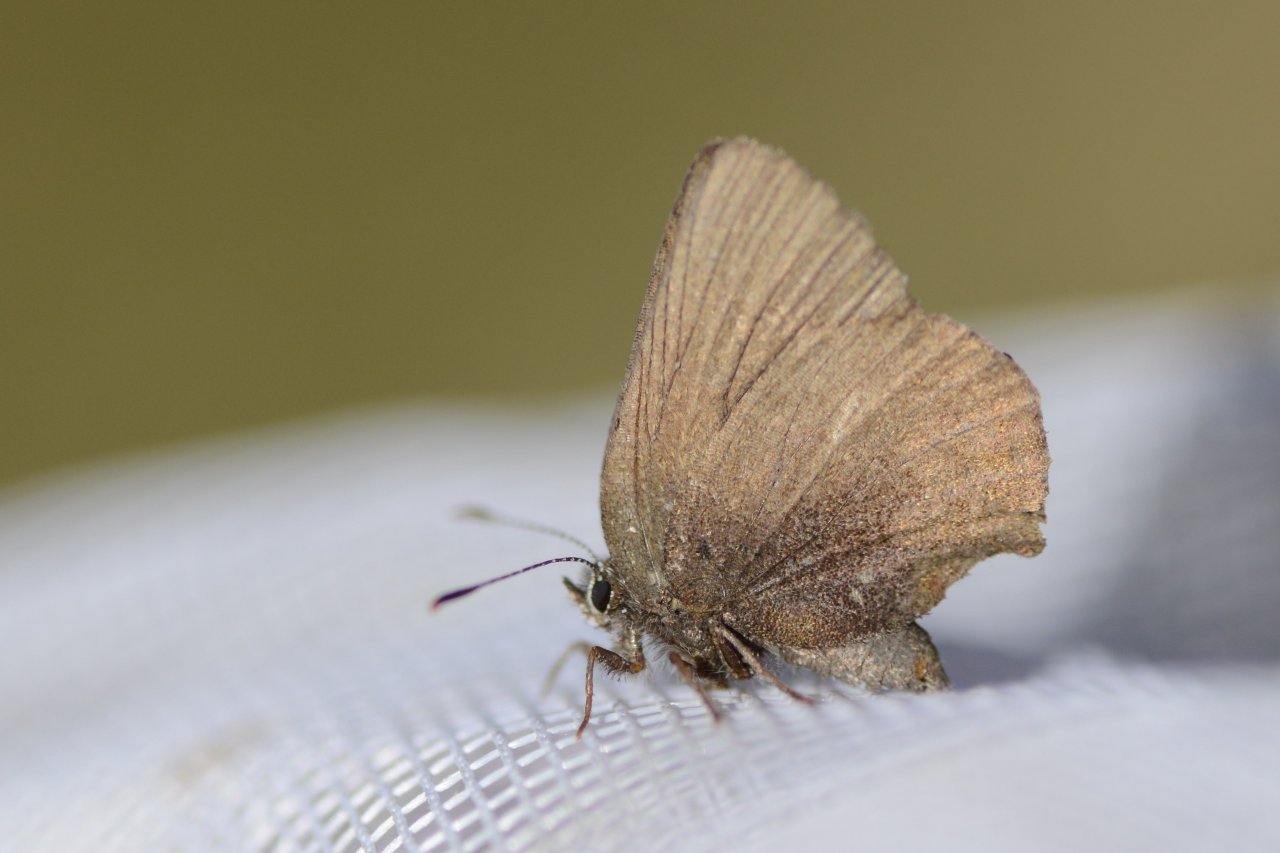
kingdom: Animalia
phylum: Arthropoda
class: Insecta
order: Lepidoptera
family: Lycaenidae
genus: Incisalia
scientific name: Incisalia irioides
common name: Brown Elfin
